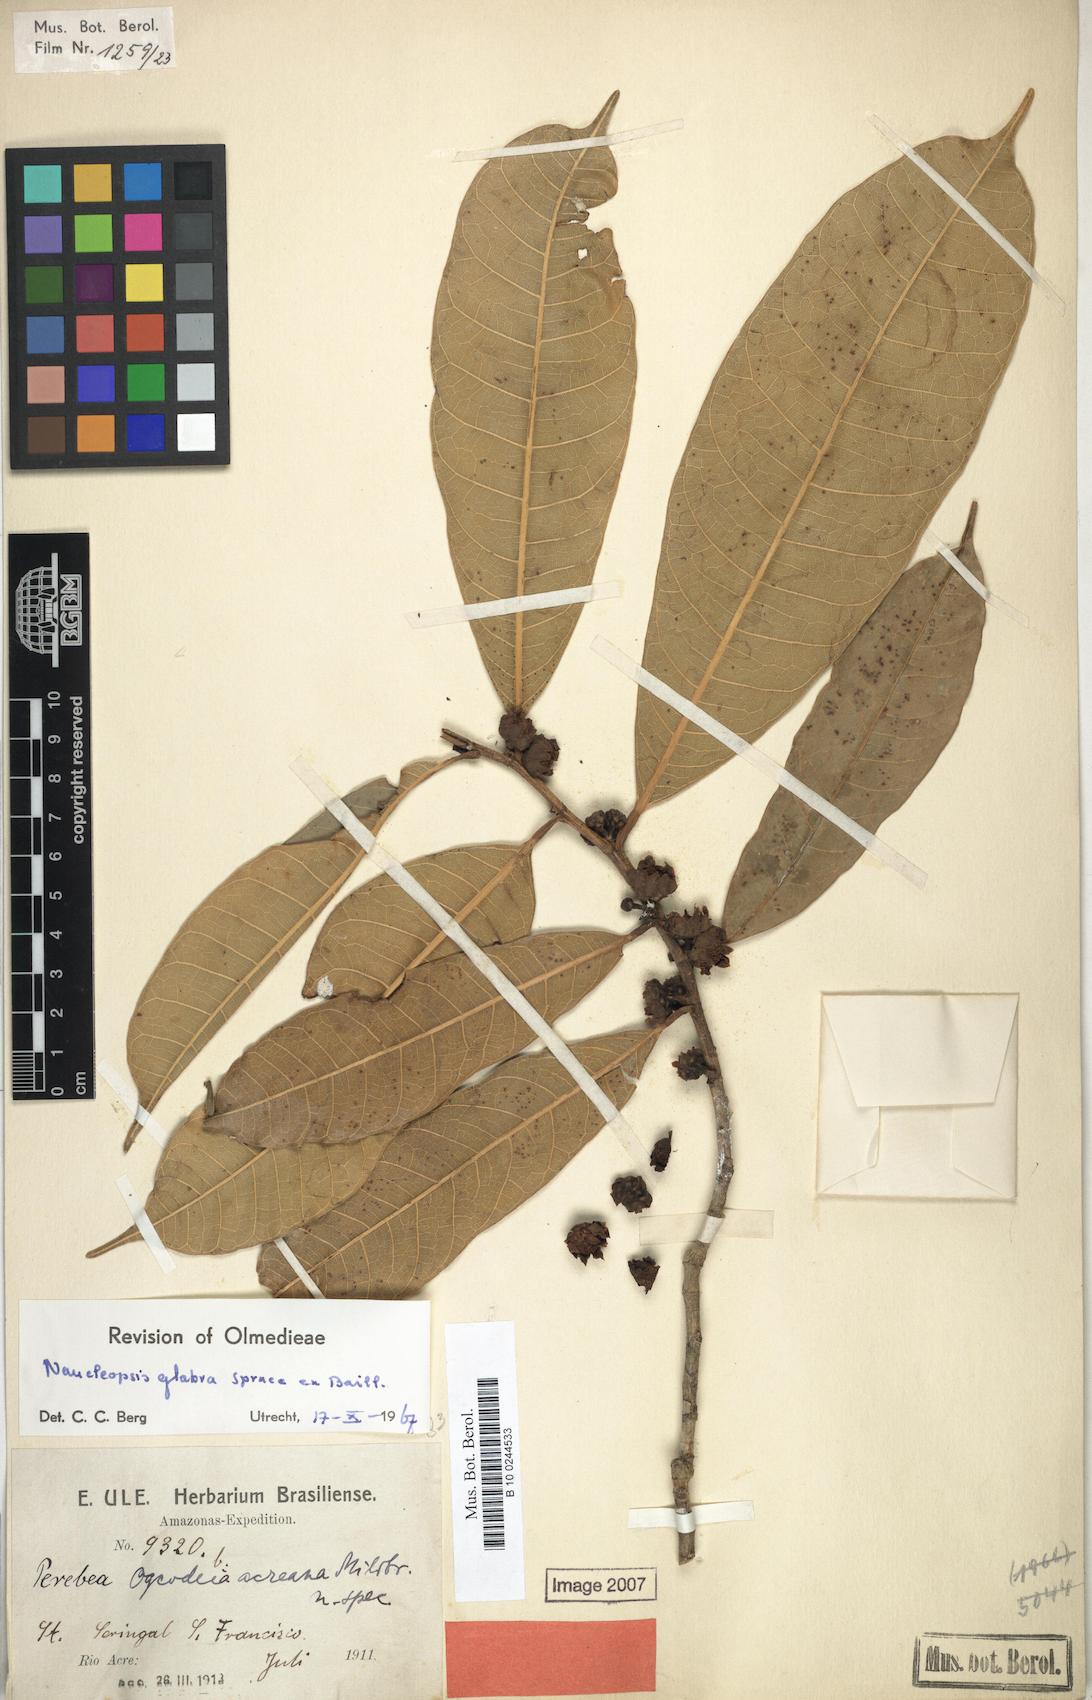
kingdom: Plantae
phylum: Tracheophyta
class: Magnoliopsida
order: Rosales
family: Moraceae
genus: Naucleopsis
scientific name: Naucleopsis glabra
